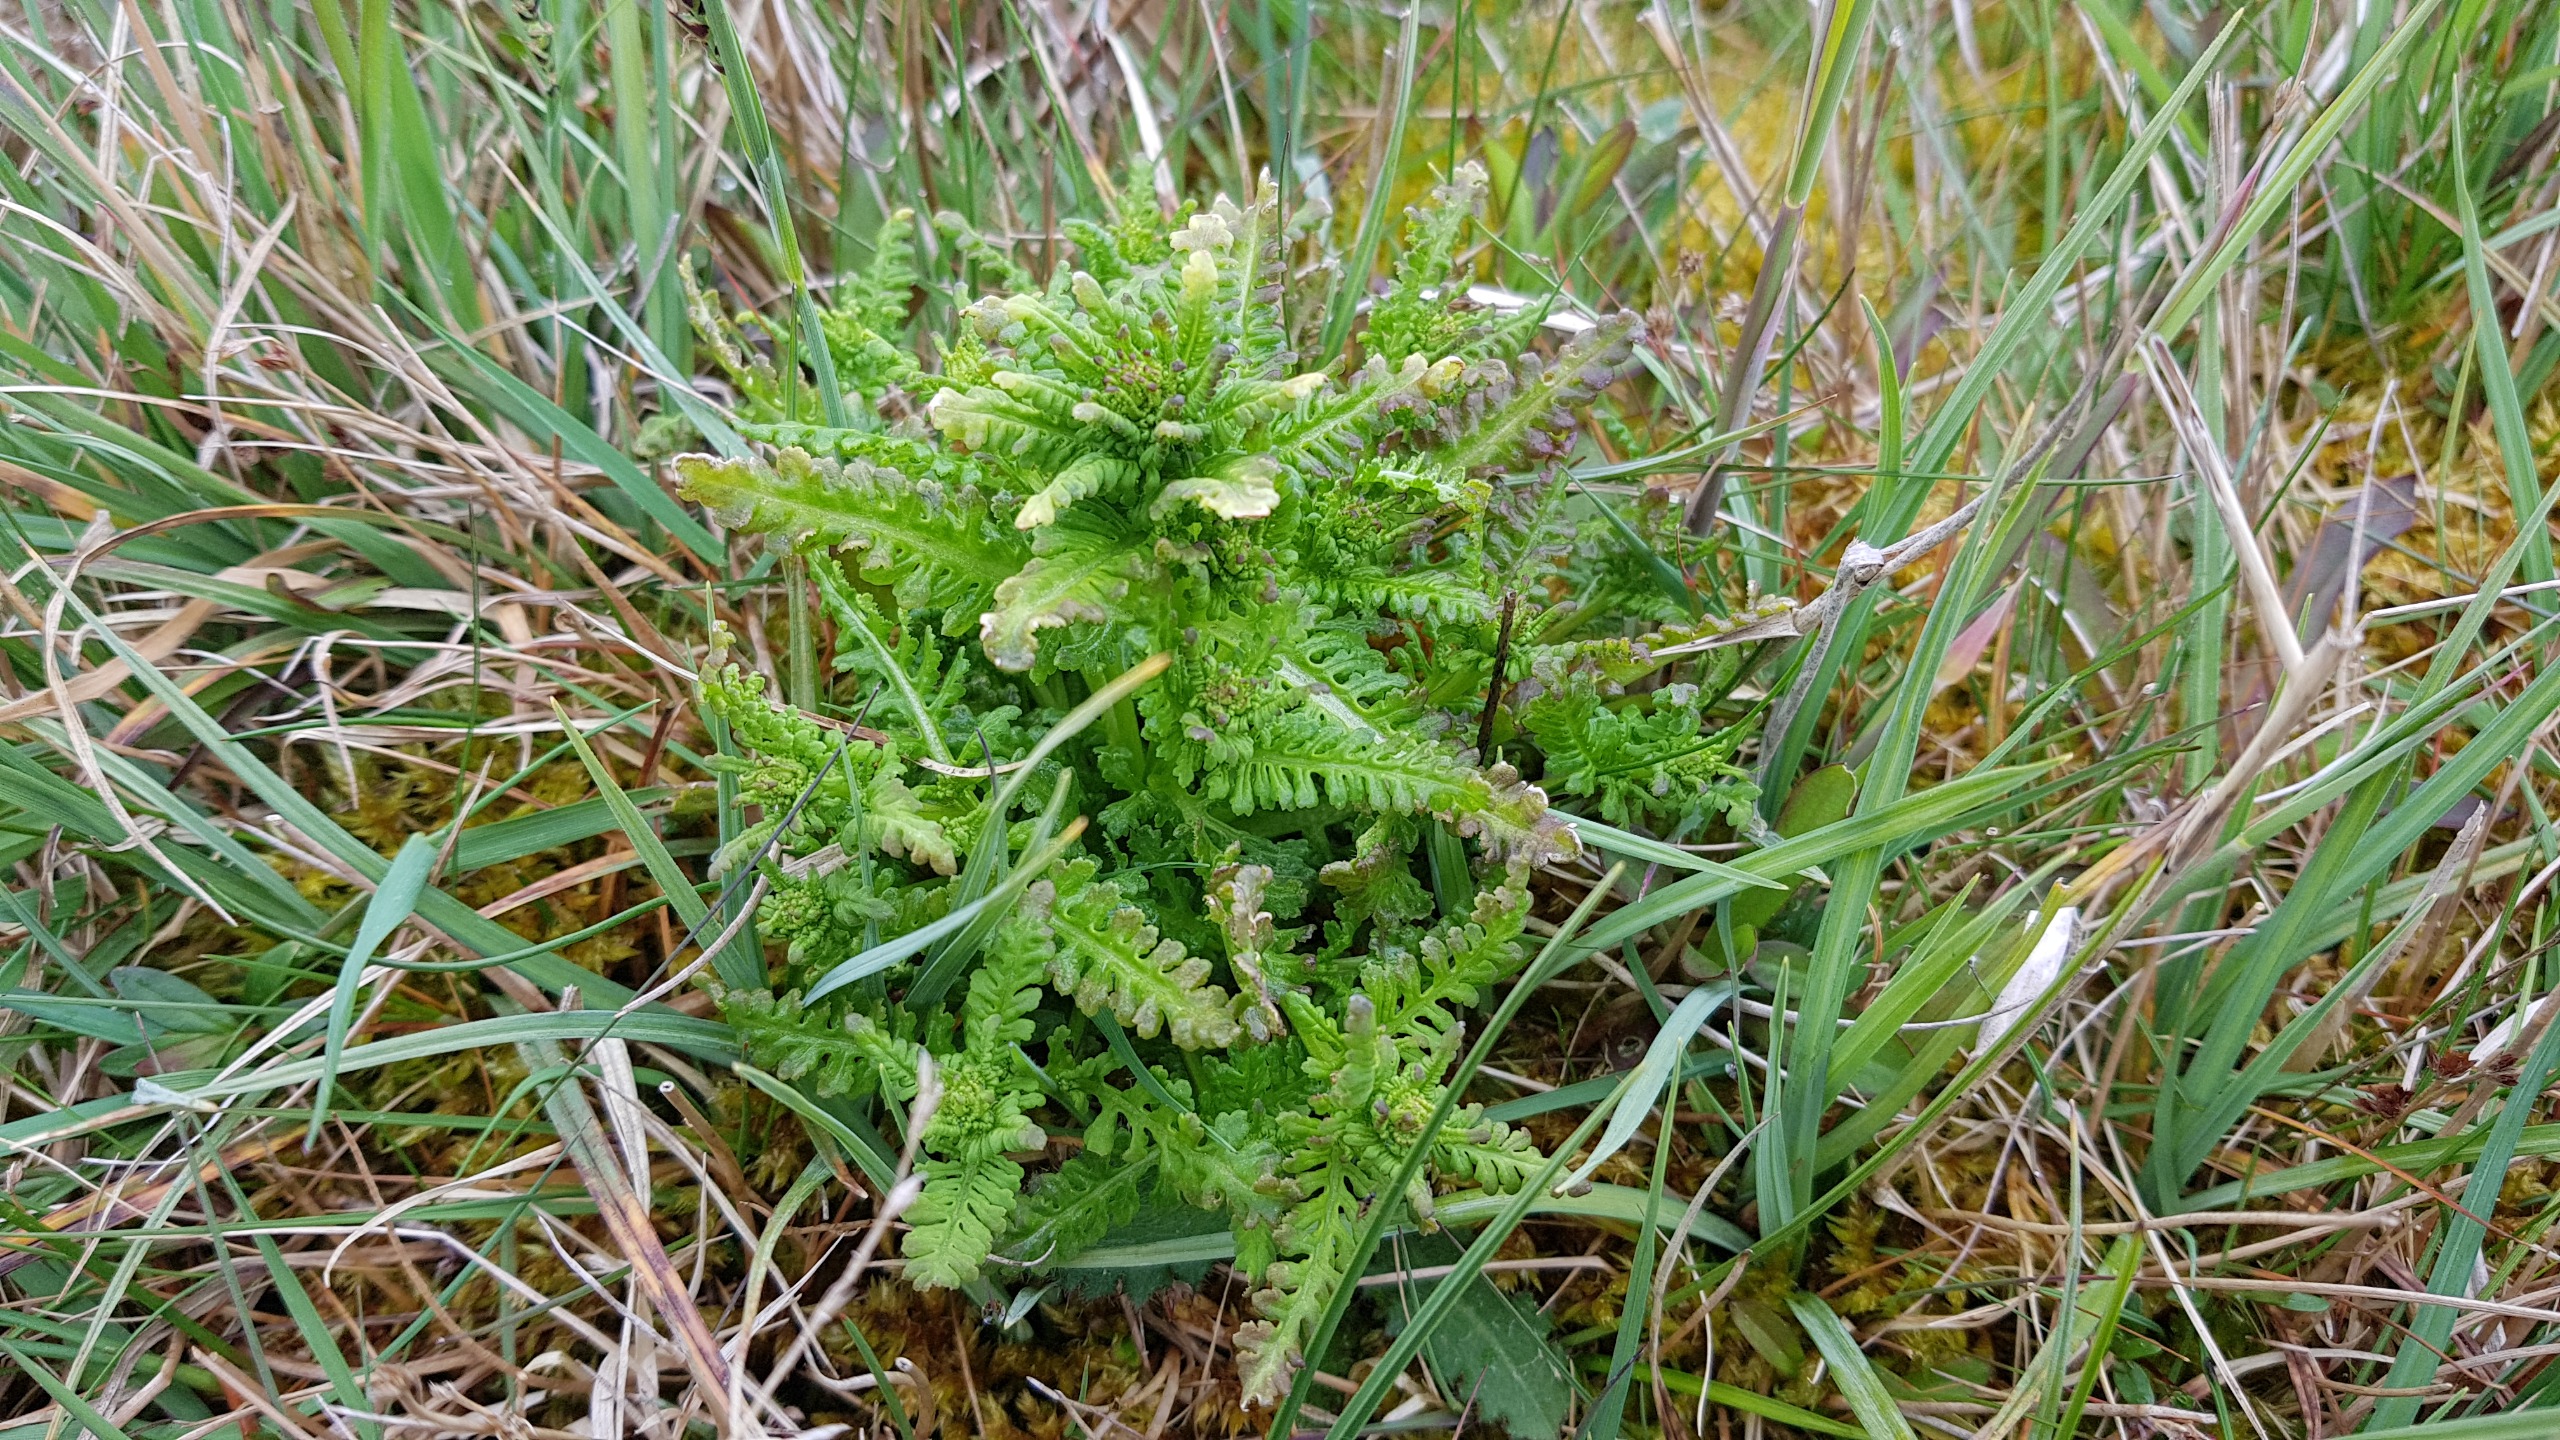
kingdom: Plantae
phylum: Tracheophyta
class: Magnoliopsida
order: Lamiales
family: Orobanchaceae
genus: Pedicularis
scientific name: Pedicularis palustris
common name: Eng-troldurt
